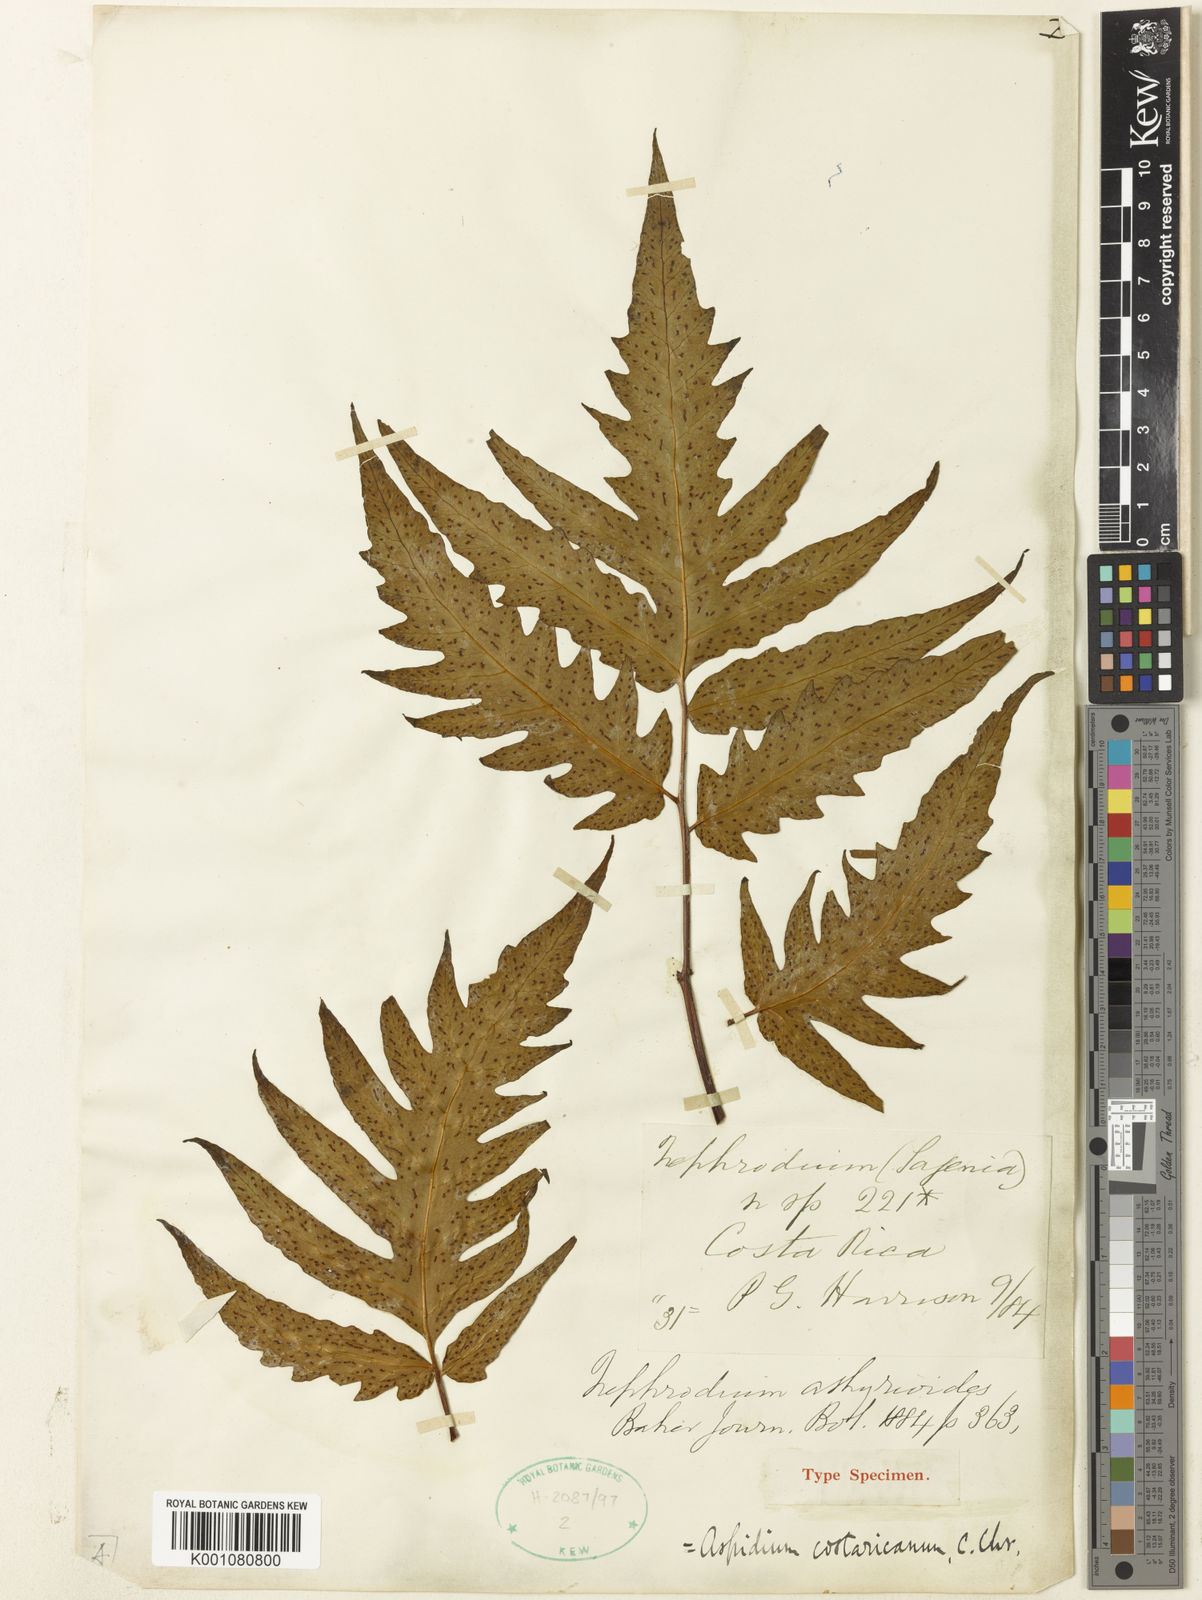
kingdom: Plantae
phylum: Tracheophyta
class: Polypodiopsida
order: Polypodiales
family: Tectariaceae
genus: Tectaria
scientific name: Tectaria antioquiana
